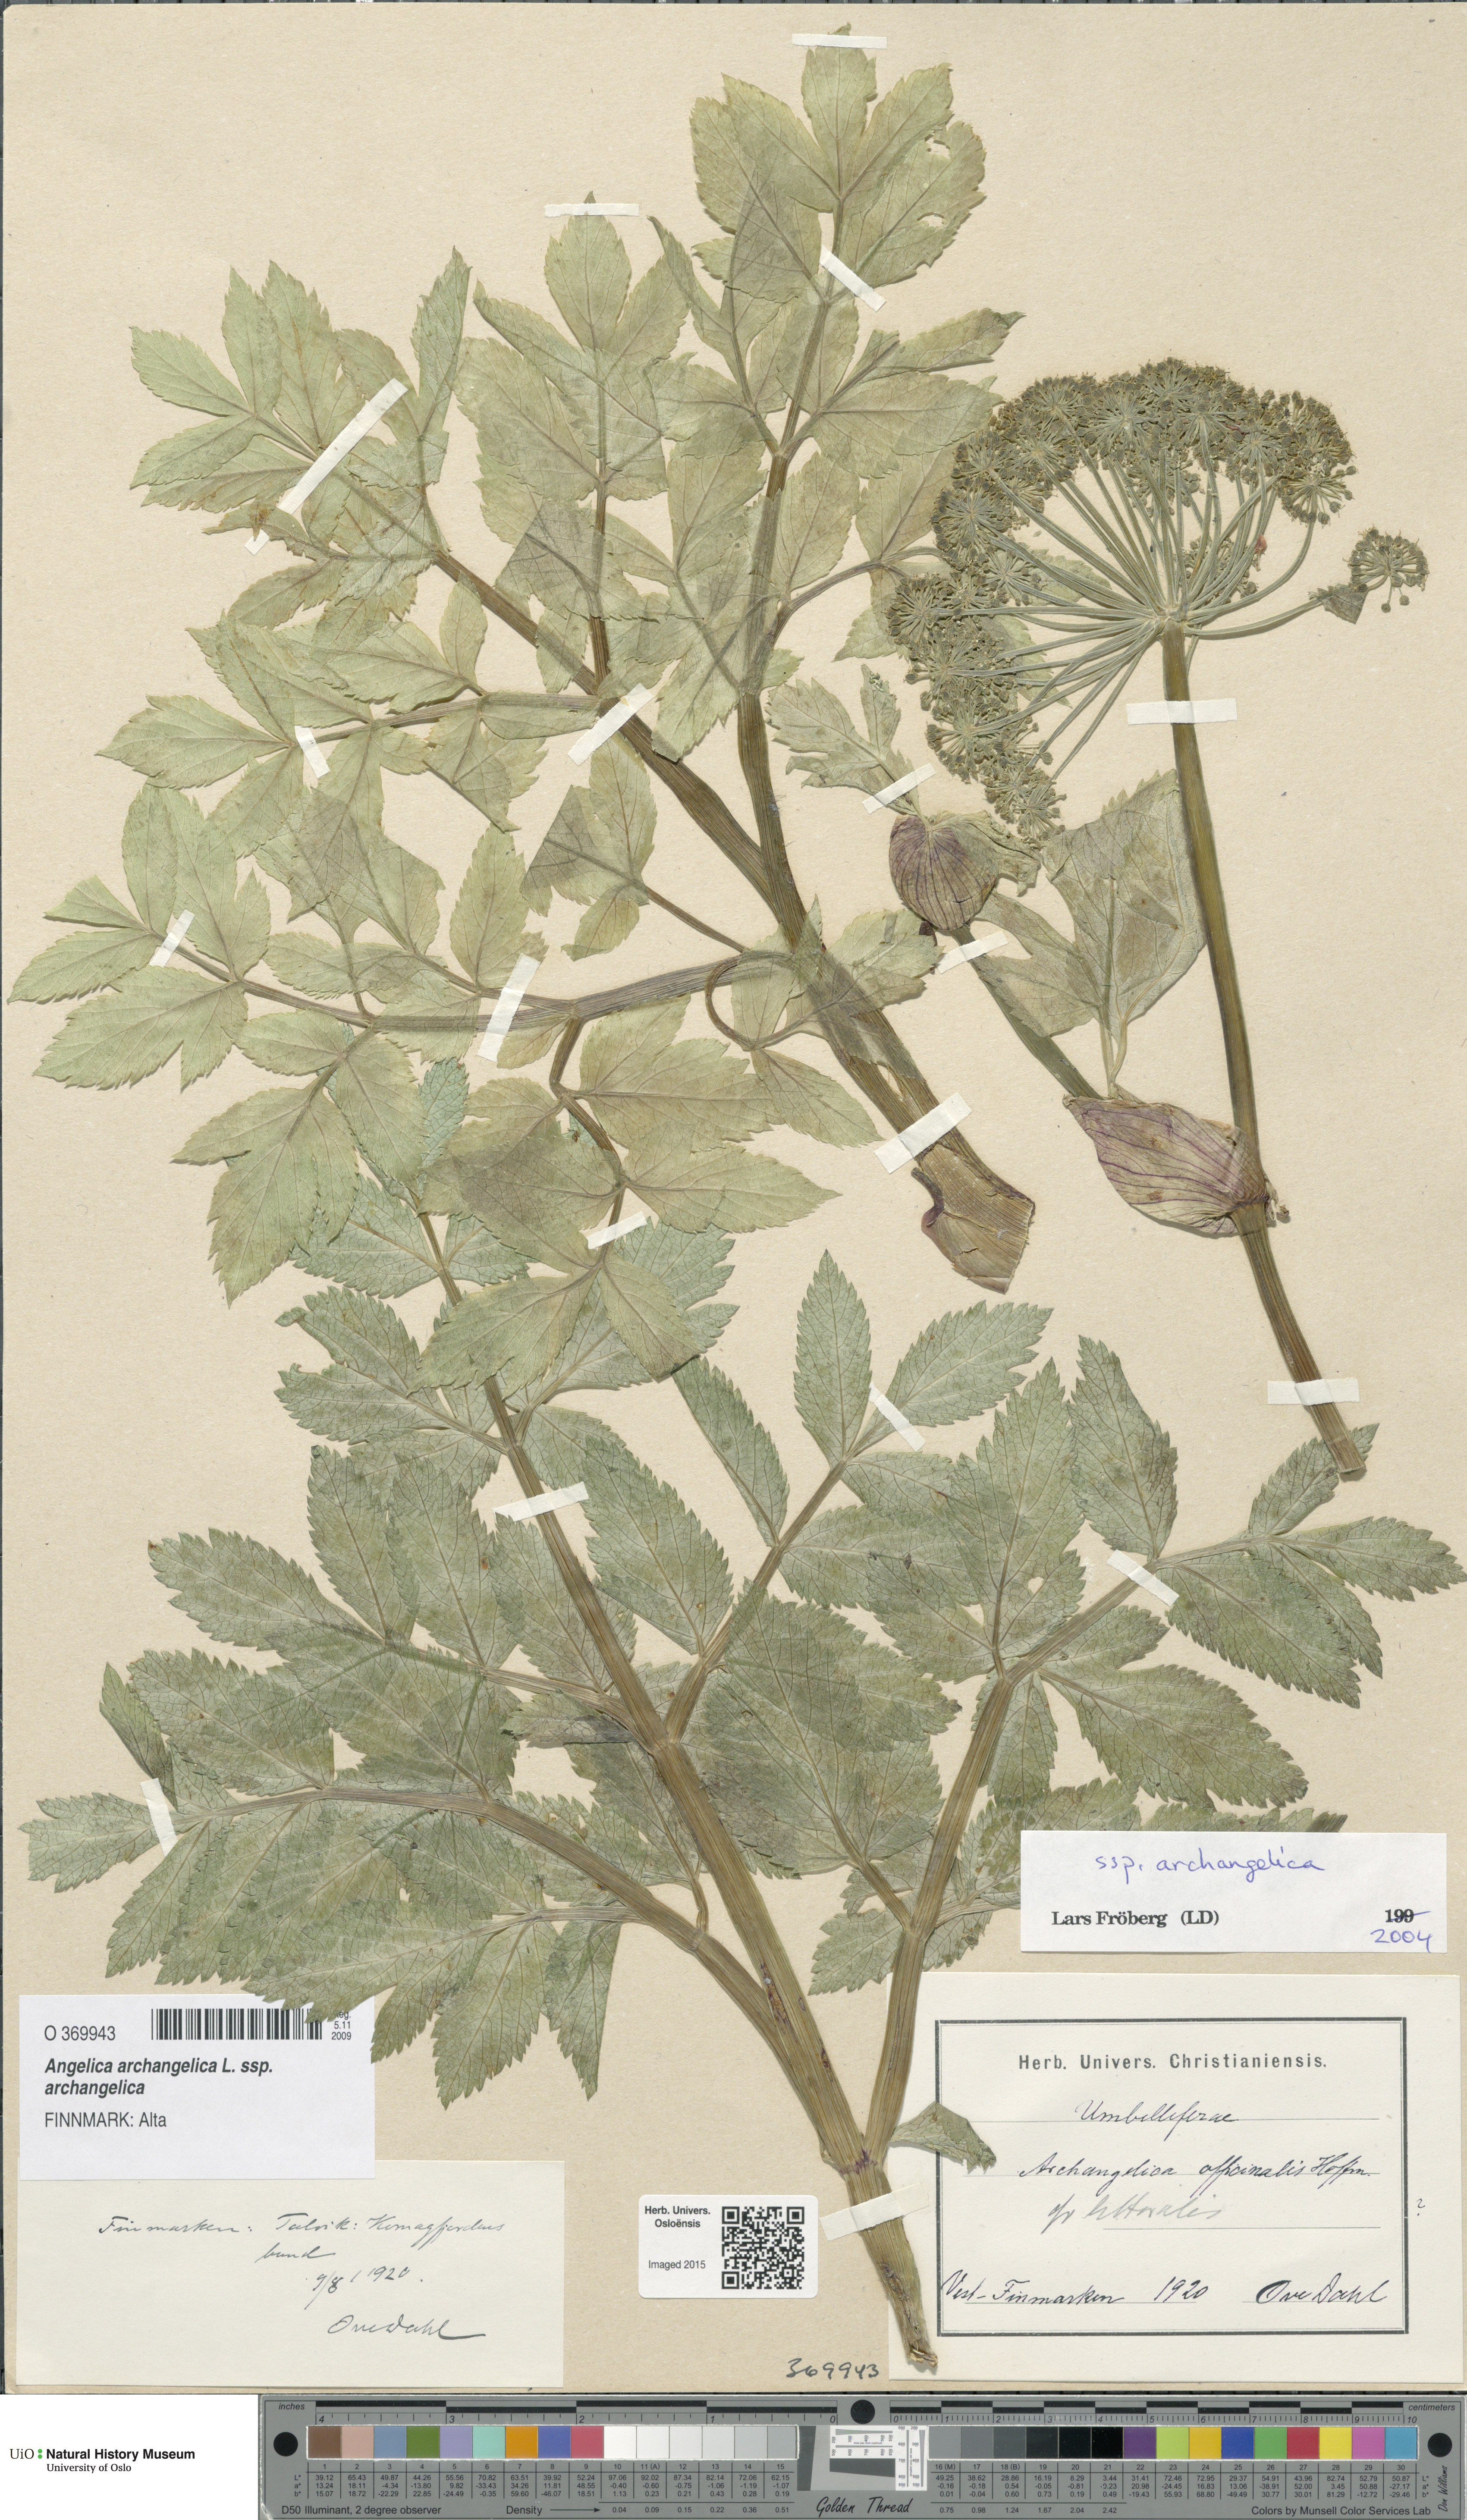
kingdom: Plantae
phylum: Tracheophyta
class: Magnoliopsida
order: Apiales
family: Apiaceae
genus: Angelica
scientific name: Angelica archangelica
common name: Garden angelica
